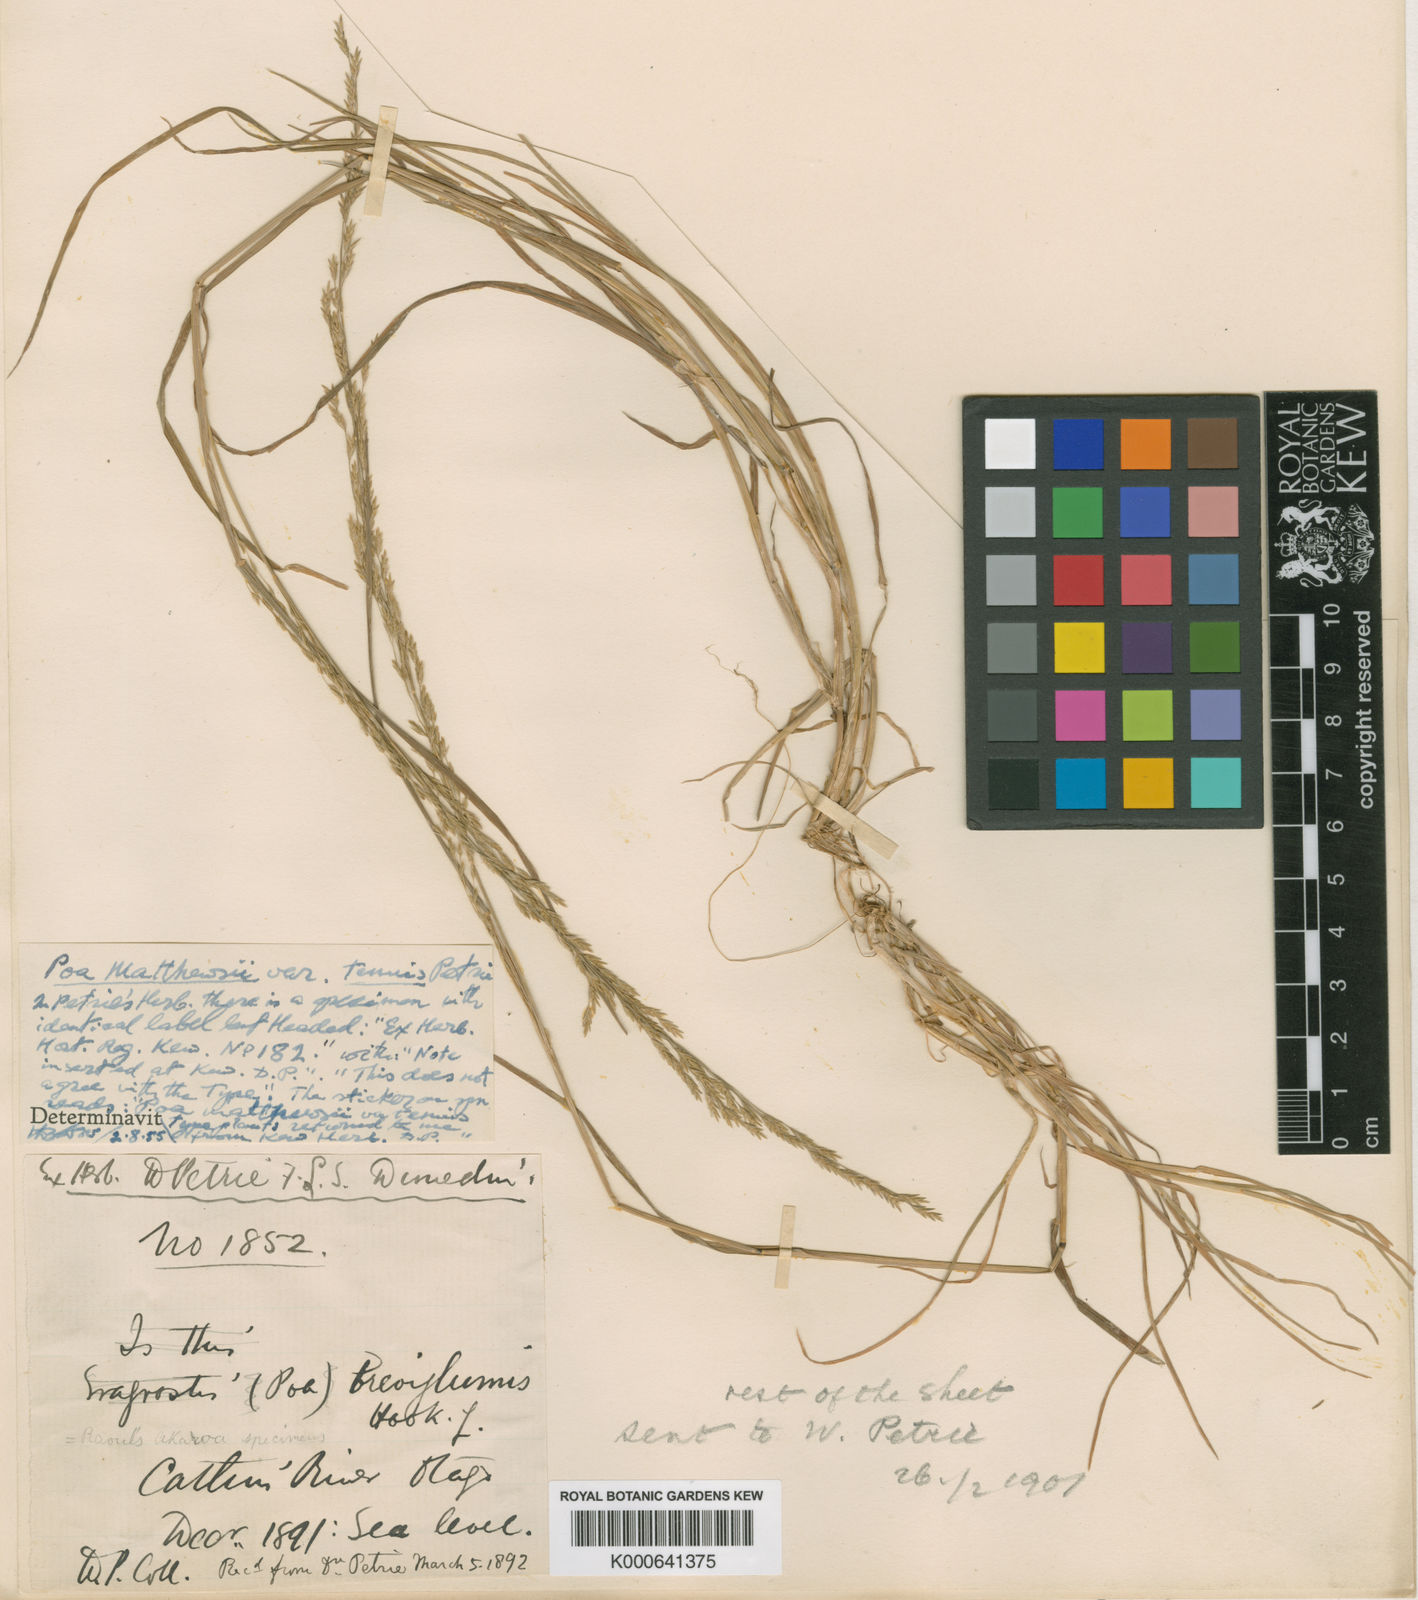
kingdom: Plantae
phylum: Tracheophyta
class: Liliopsida
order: Poales
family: Poaceae
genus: Poa
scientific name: Poa
